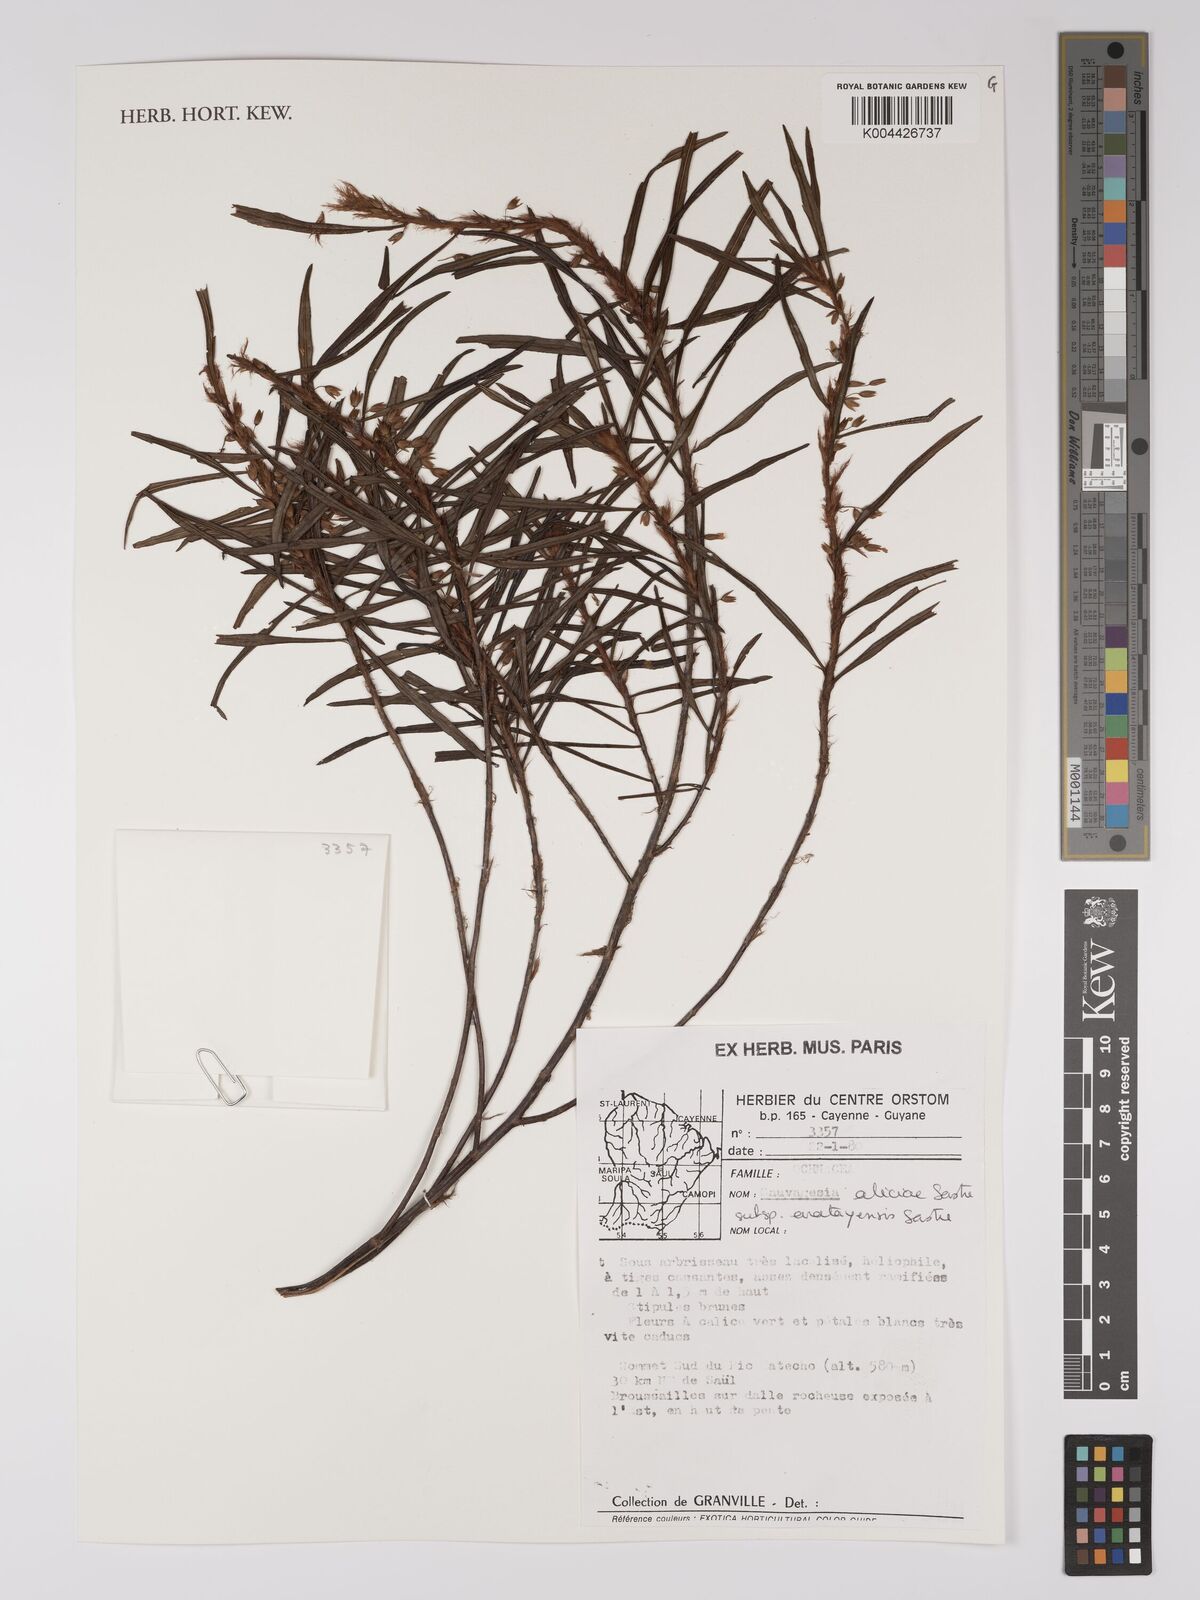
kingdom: Plantae
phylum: Tracheophyta
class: Magnoliopsida
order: Malpighiales
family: Ochnaceae
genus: Sauvagesia
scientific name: Sauvagesia aliciae
